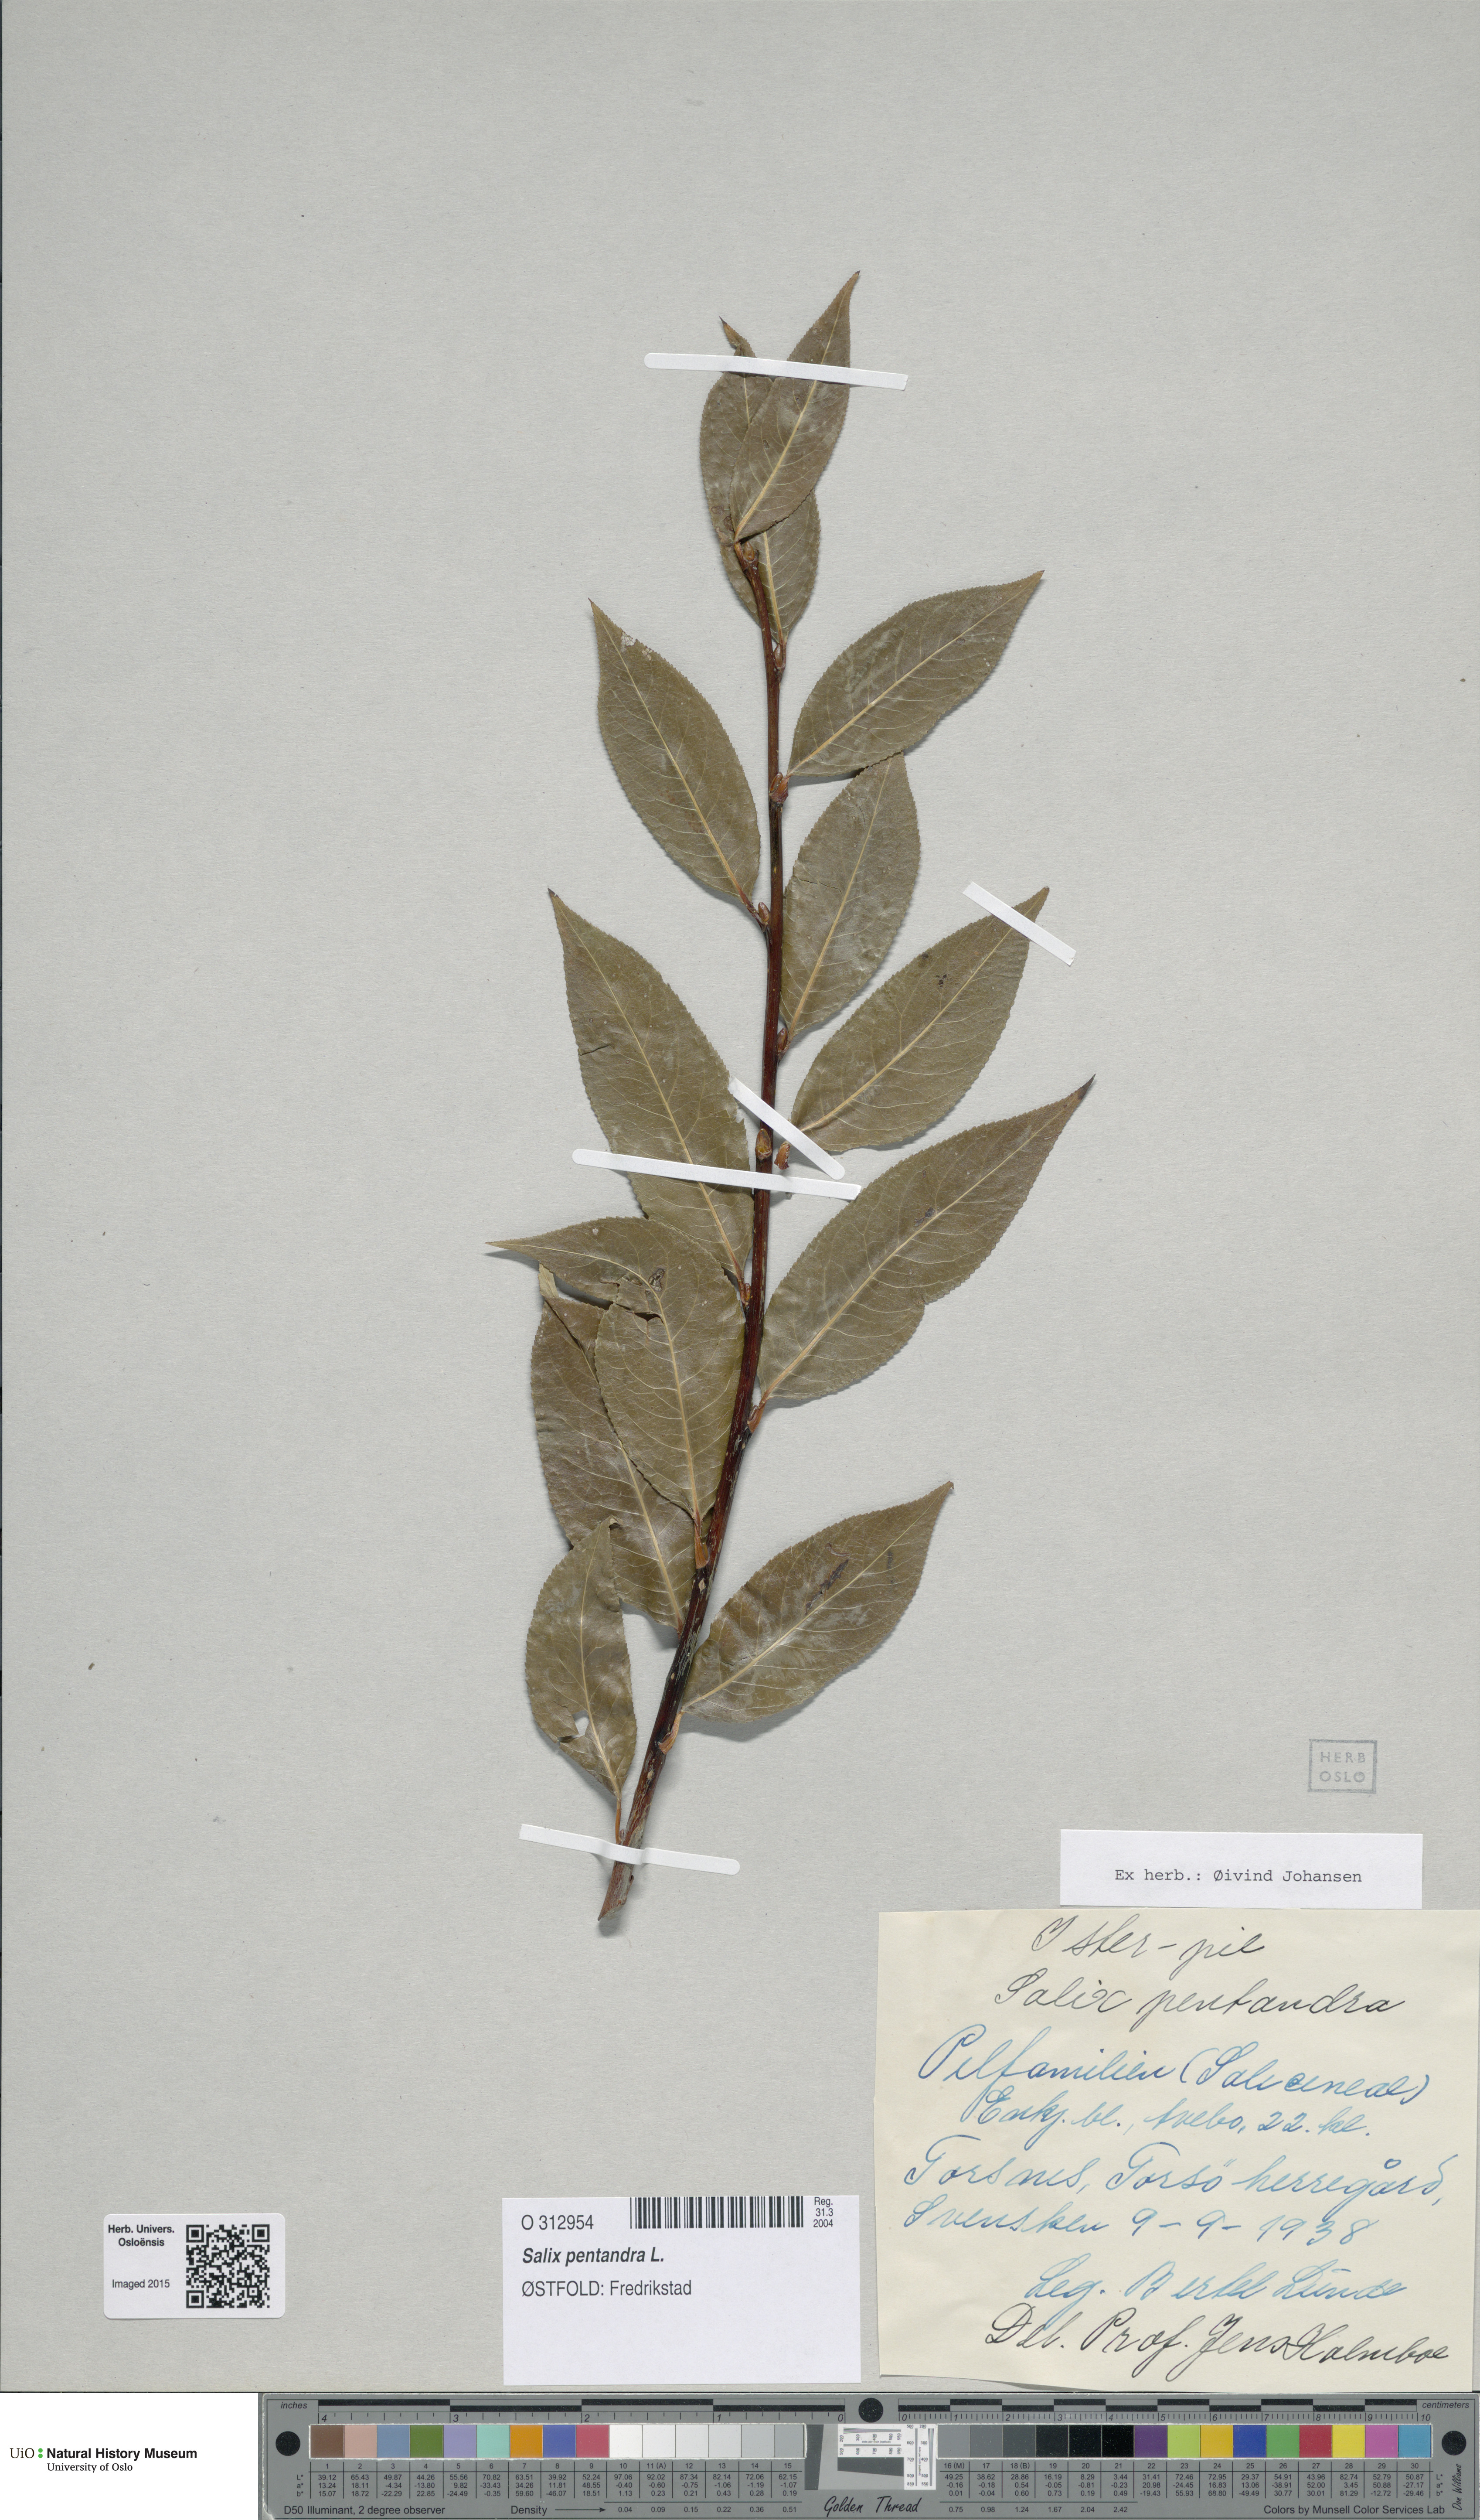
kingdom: Plantae
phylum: Tracheophyta
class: Magnoliopsida
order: Malpighiales
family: Salicaceae
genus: Salix
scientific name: Salix pentandra
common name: Bay willow
